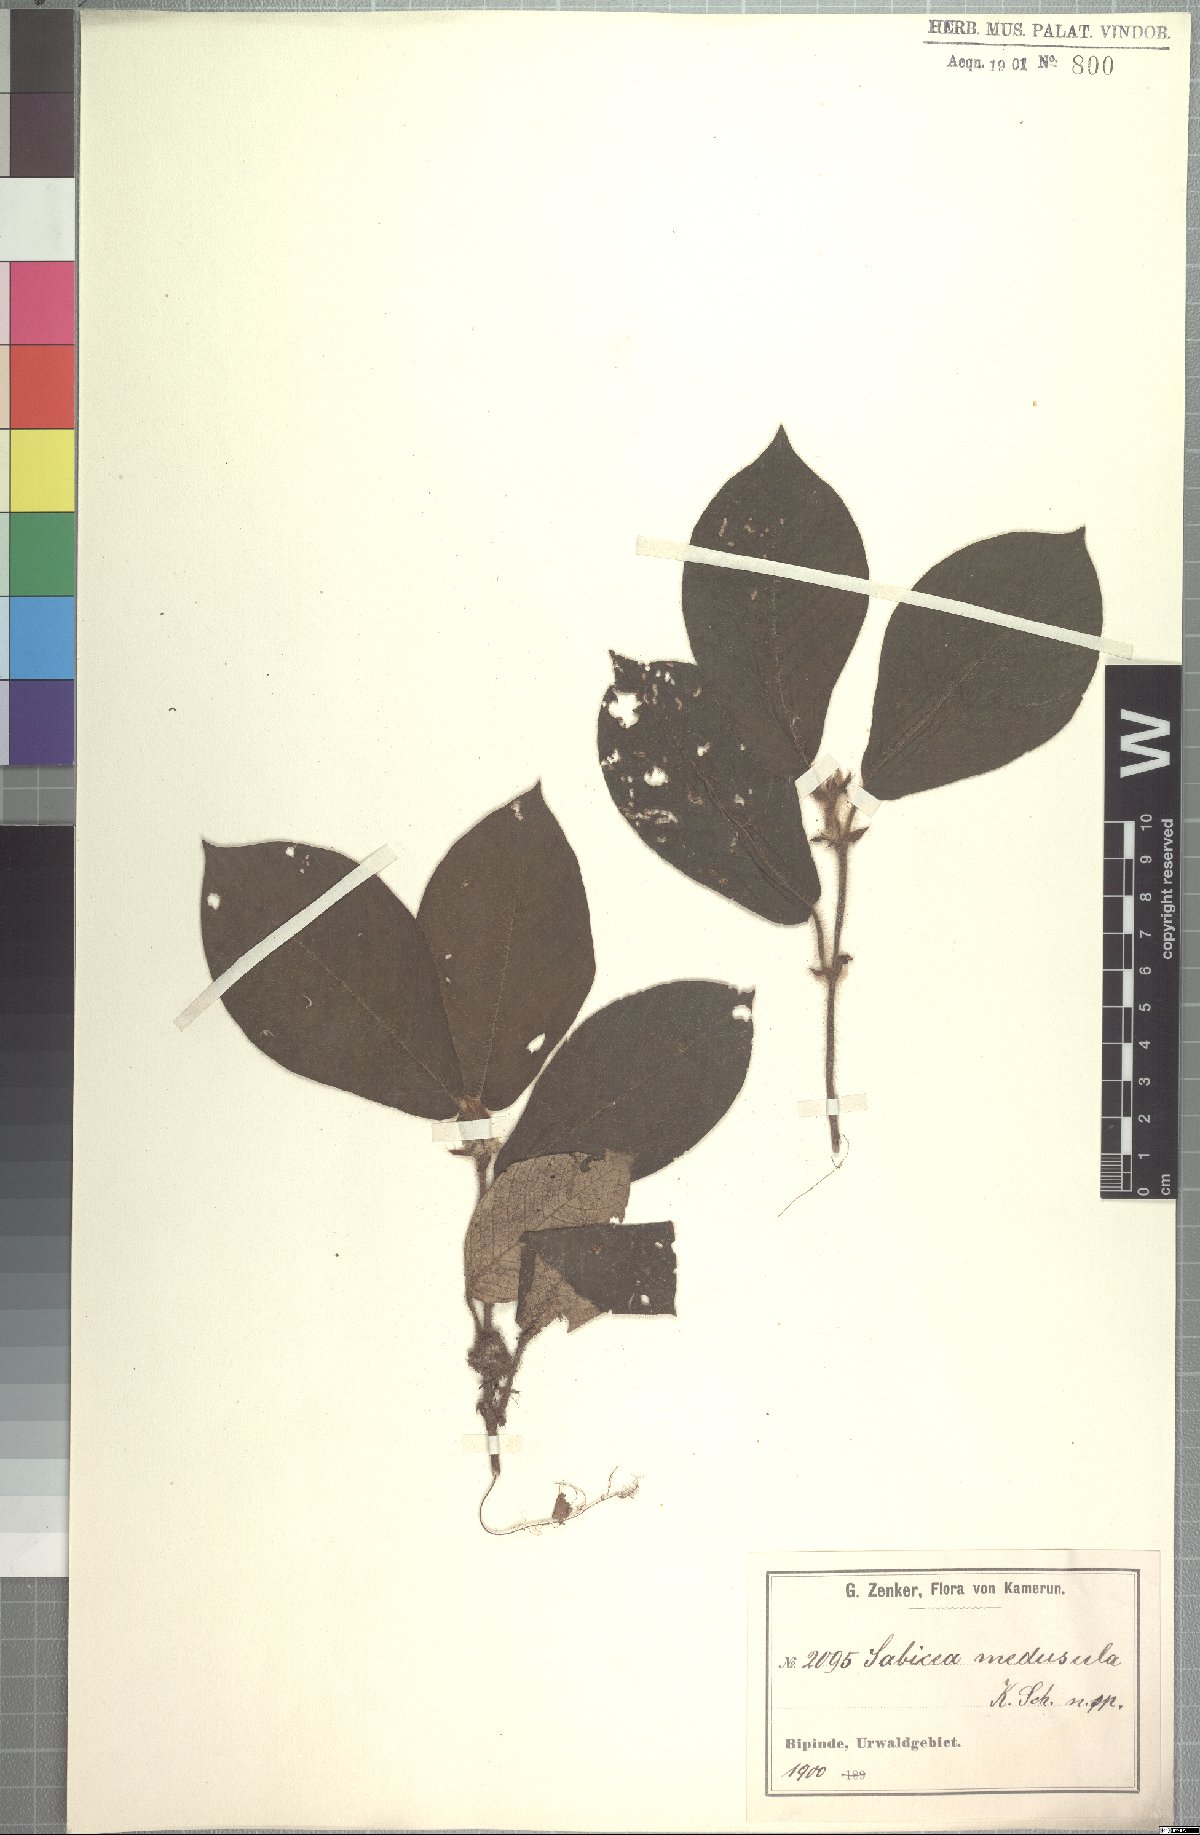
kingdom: Plantae
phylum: Tracheophyta
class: Magnoliopsida
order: Gentianales
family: Rubiaceae
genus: Sabicea
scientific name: Sabicea medusula
